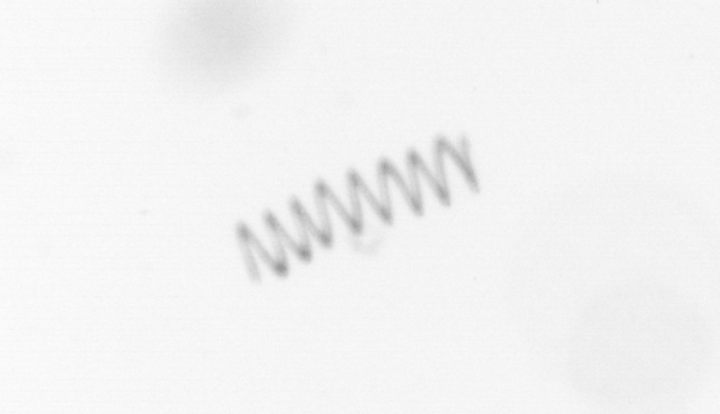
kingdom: Chromista
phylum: Ochrophyta
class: Bacillariophyceae
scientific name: Bacillariophyceae
